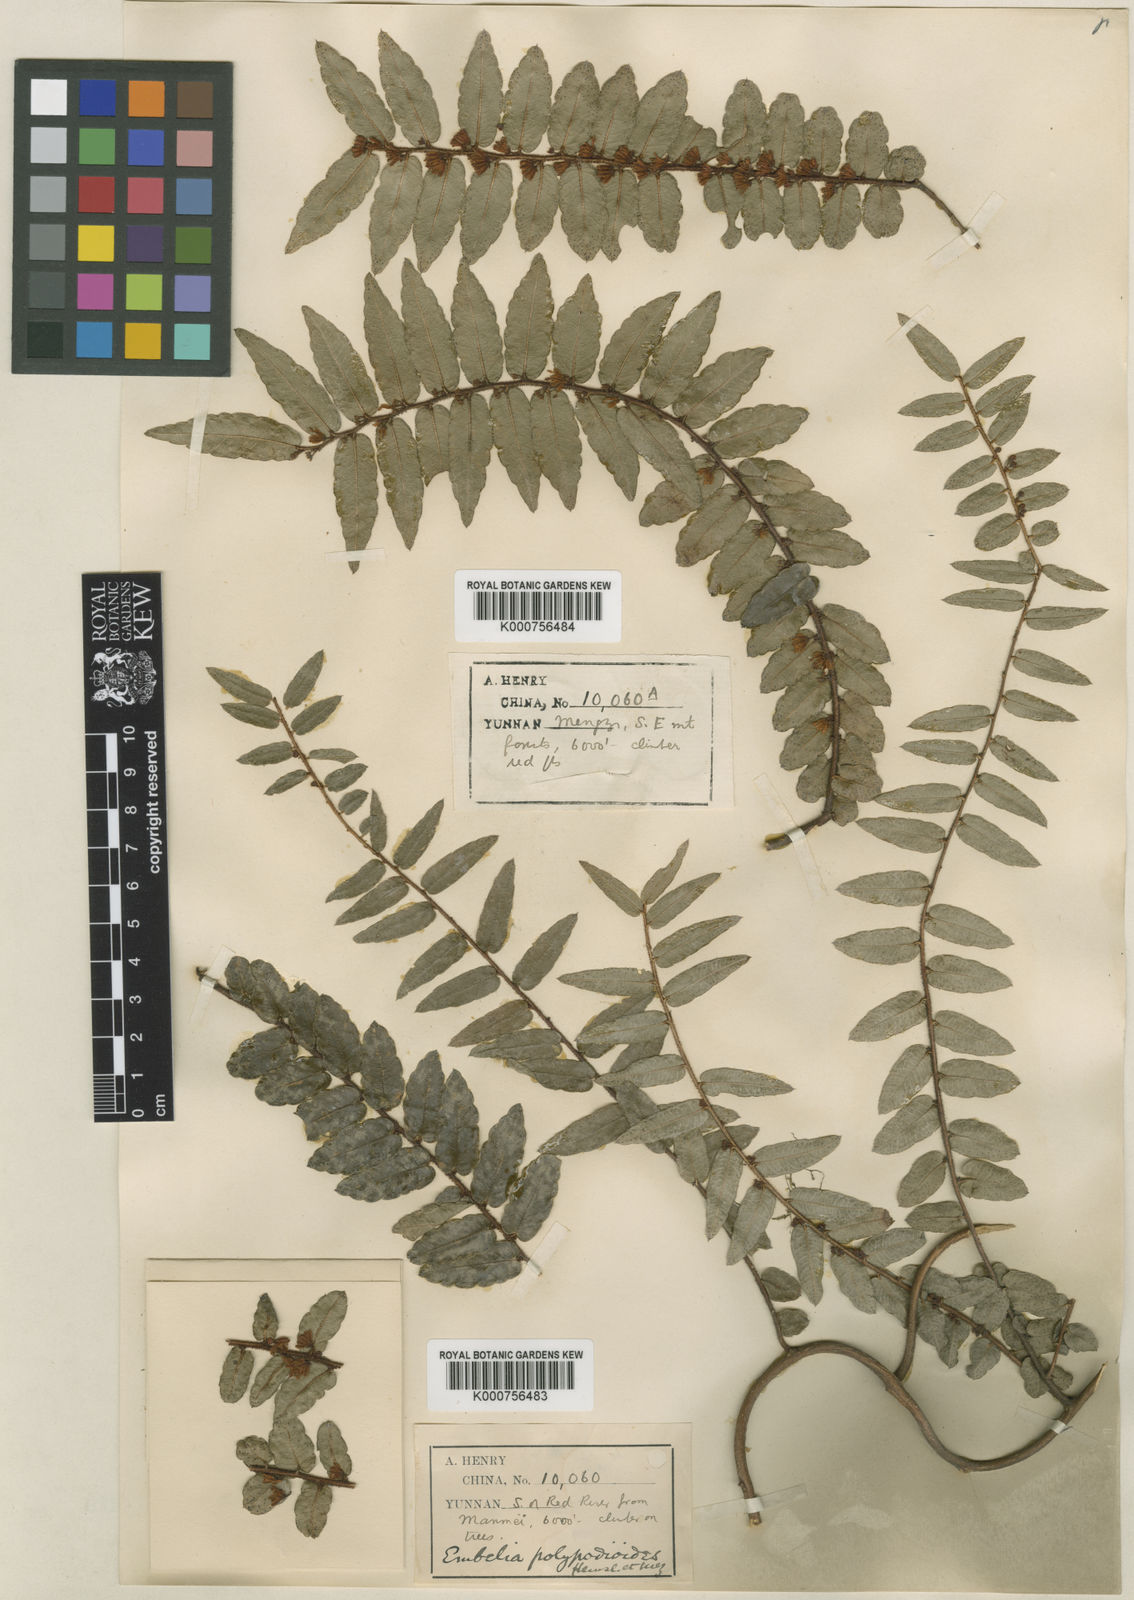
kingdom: Plantae
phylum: Tracheophyta
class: Magnoliopsida
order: Ericales
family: Primulaceae
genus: Embelia
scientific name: Embelia polypodioides
